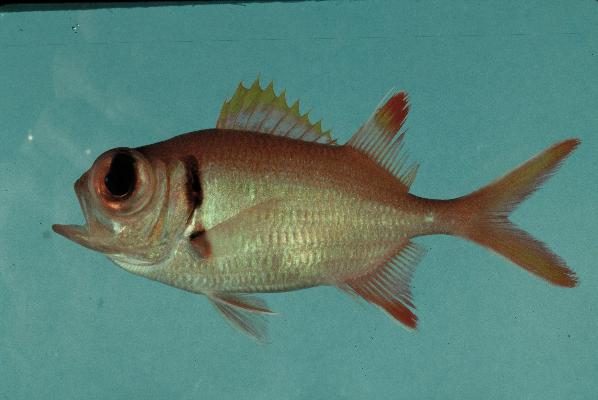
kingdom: Animalia
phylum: Chordata
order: Beryciformes
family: Holocentridae
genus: Myripristis
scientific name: Myripristis kuntee
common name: Epaulette soldierfish
